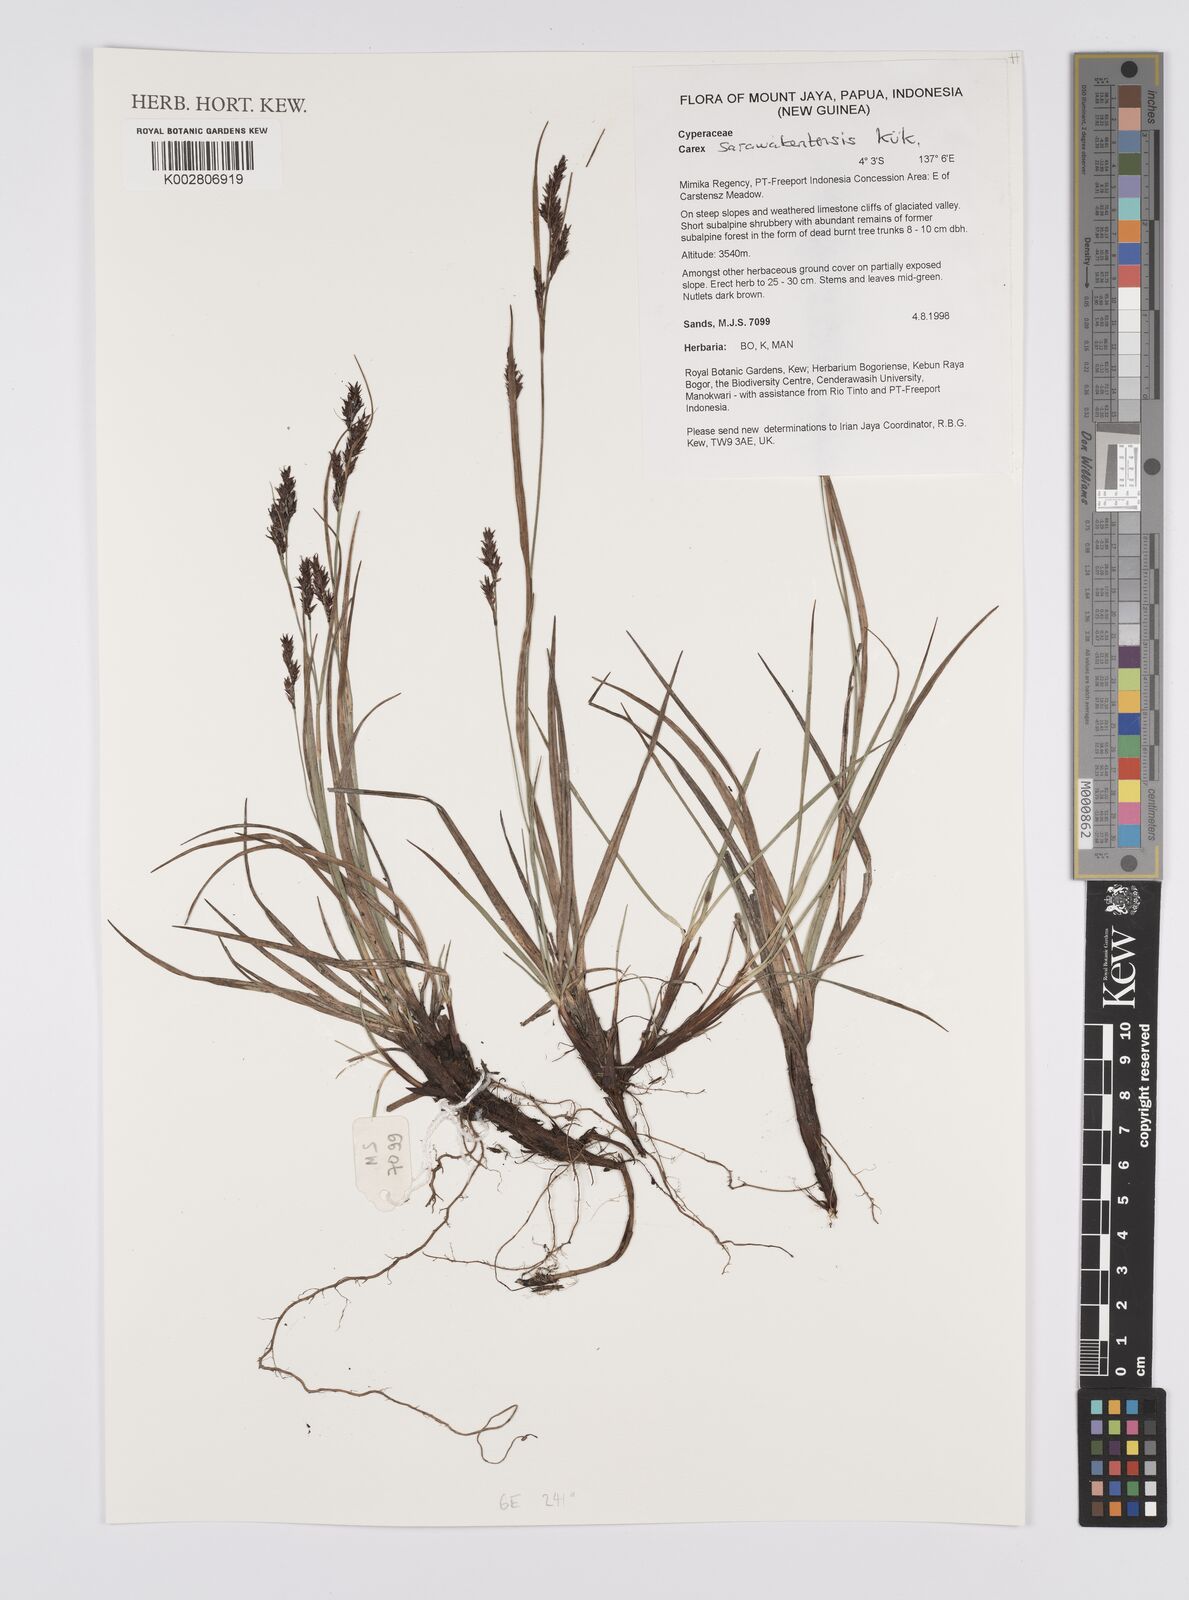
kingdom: Plantae
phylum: Tracheophyta
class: Liliopsida
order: Poales
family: Cyperaceae
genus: Carex
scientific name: Carex sarawaketensis
